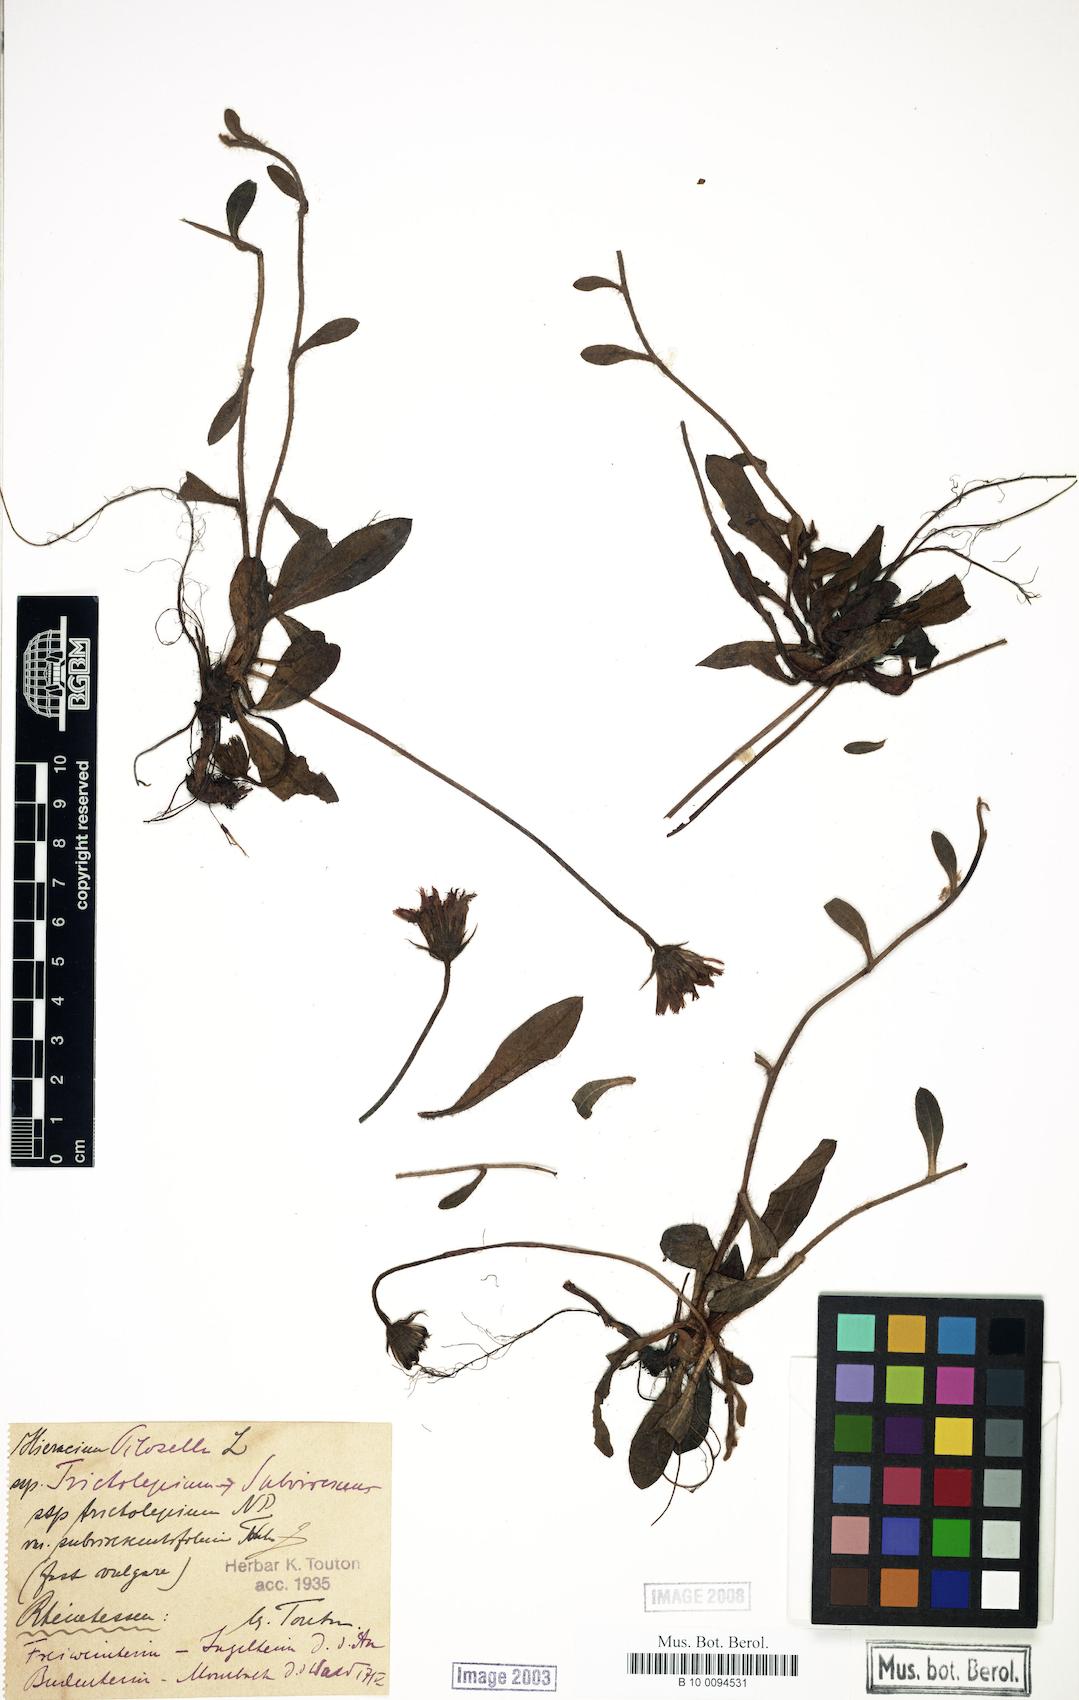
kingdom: Plantae
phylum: Tracheophyta
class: Magnoliopsida
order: Asterales
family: Asteraceae
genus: Pilosella
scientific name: Pilosella officinarum
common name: Mouse-ear hawkweed
